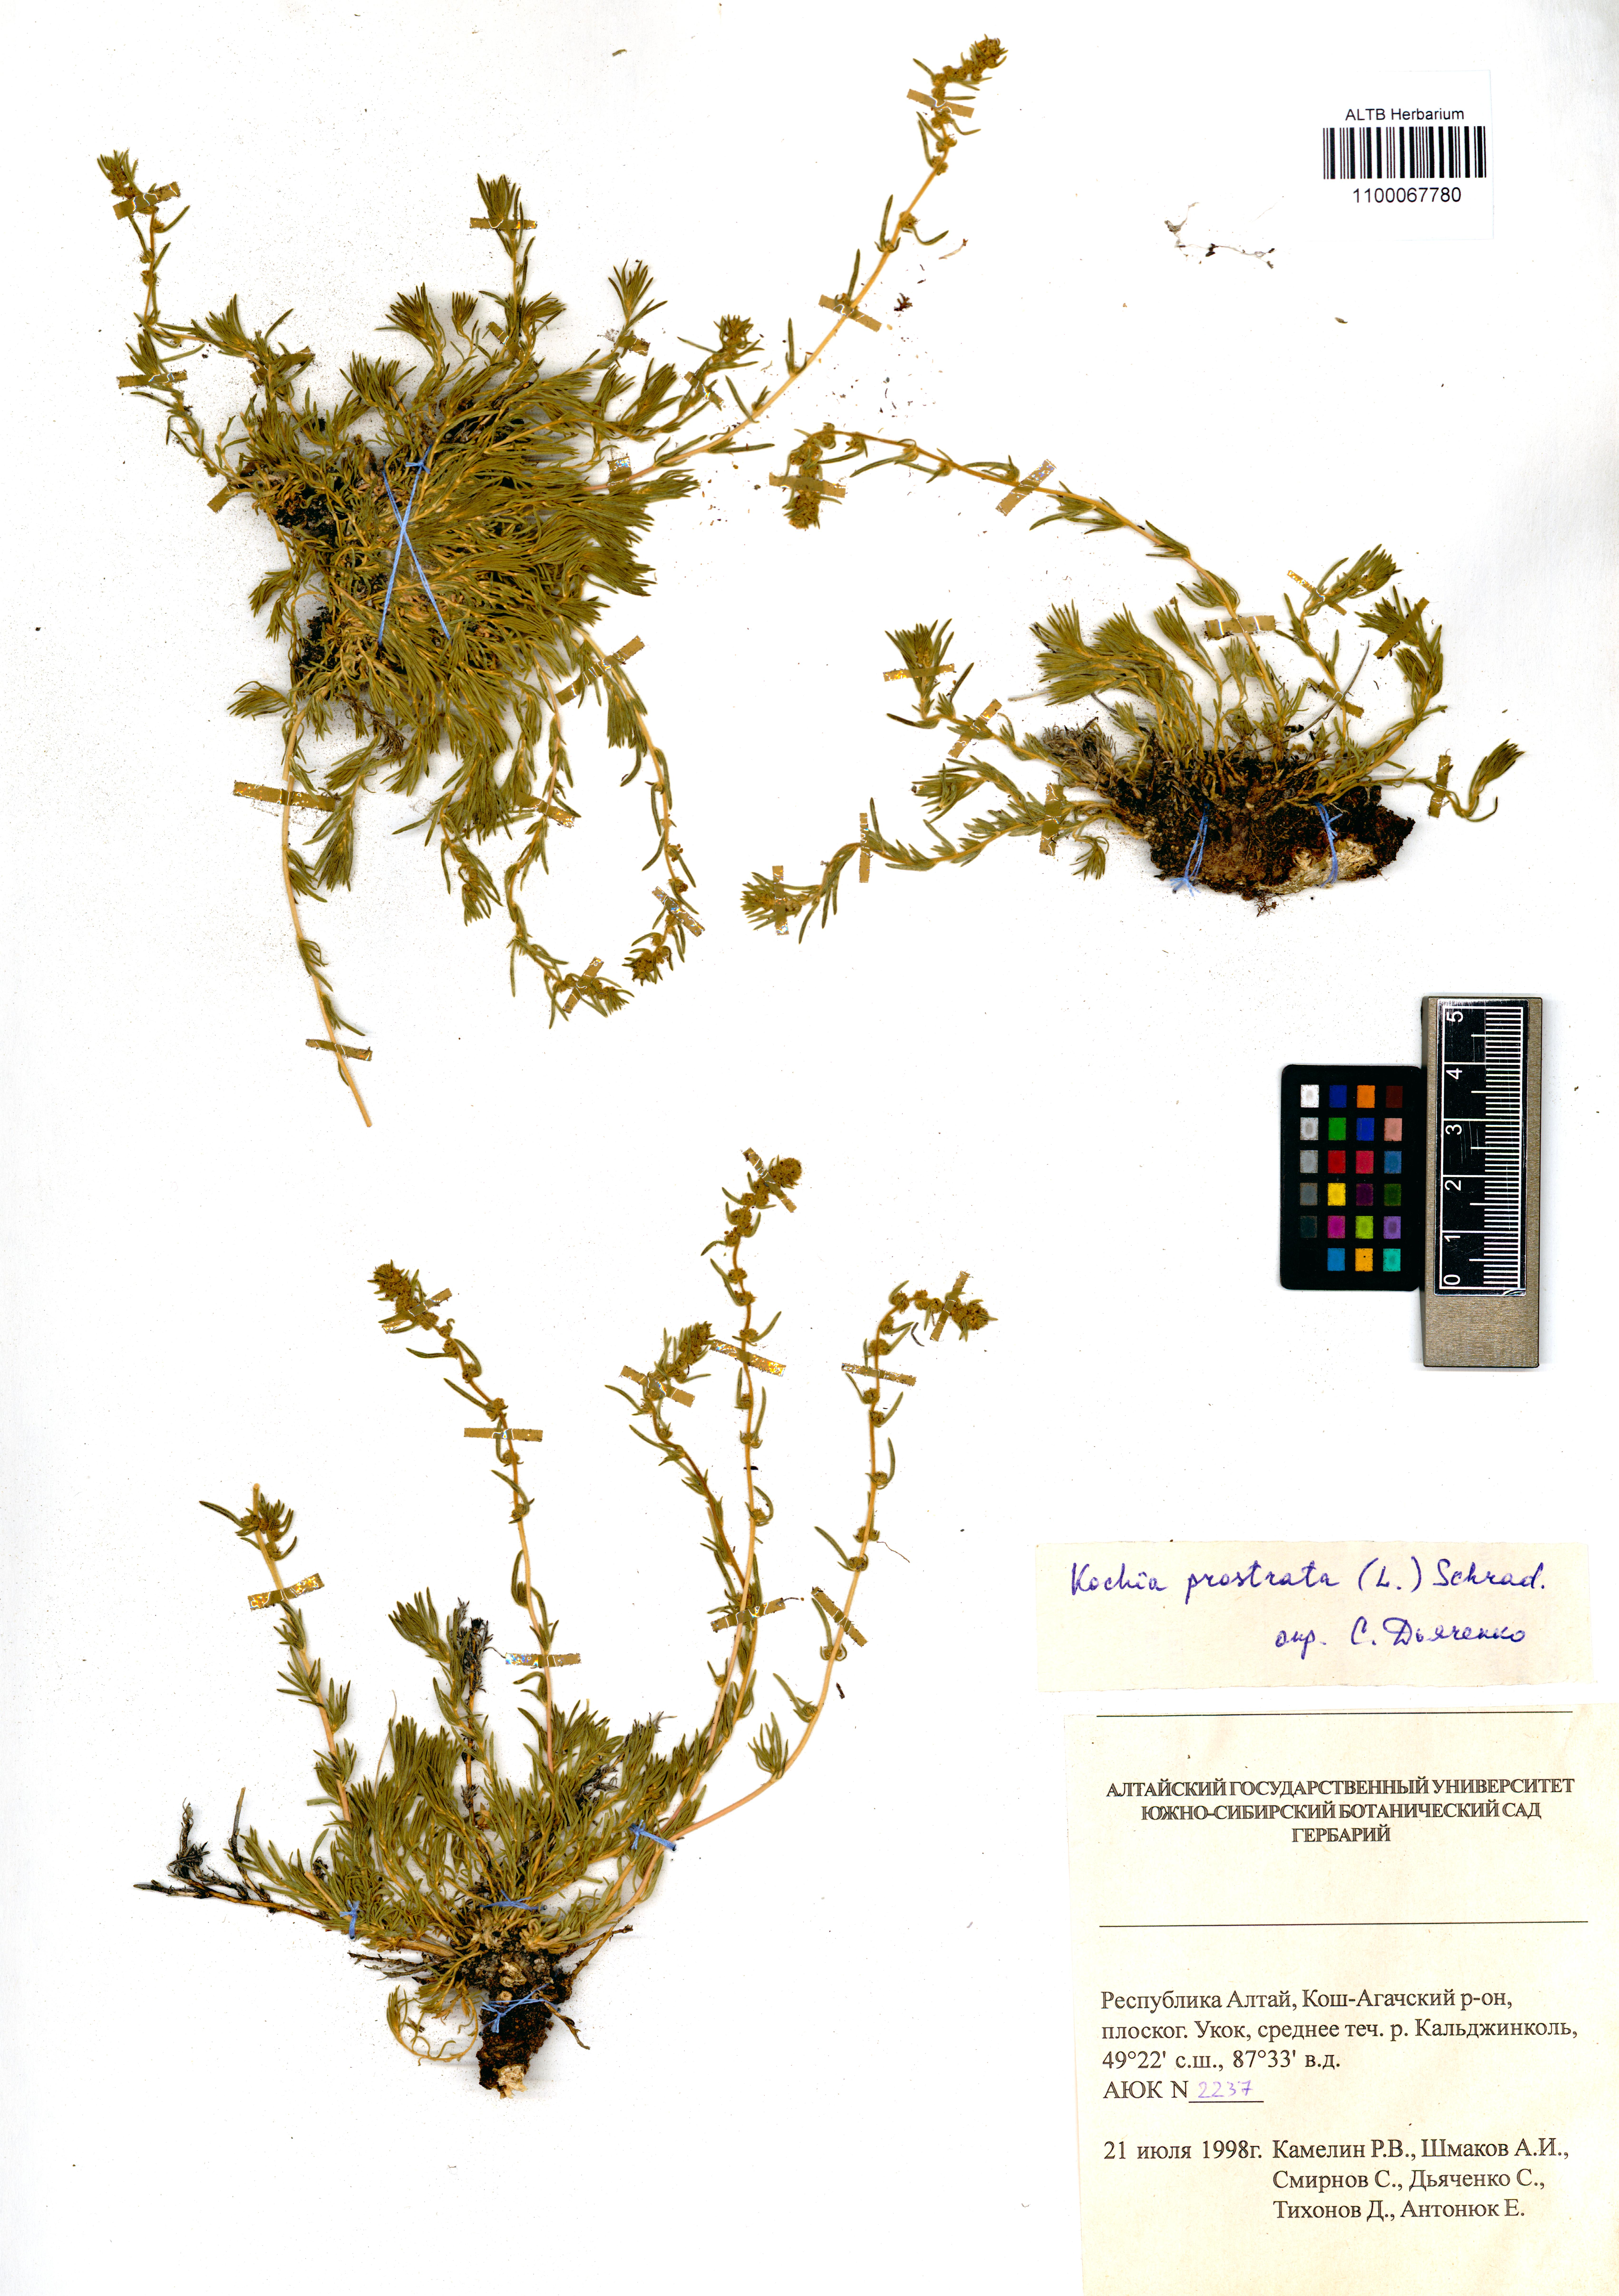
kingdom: Plantae
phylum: Tracheophyta
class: Magnoliopsida
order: Caryophyllales
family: Amaranthaceae
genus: Bassia
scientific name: Bassia prostrata
